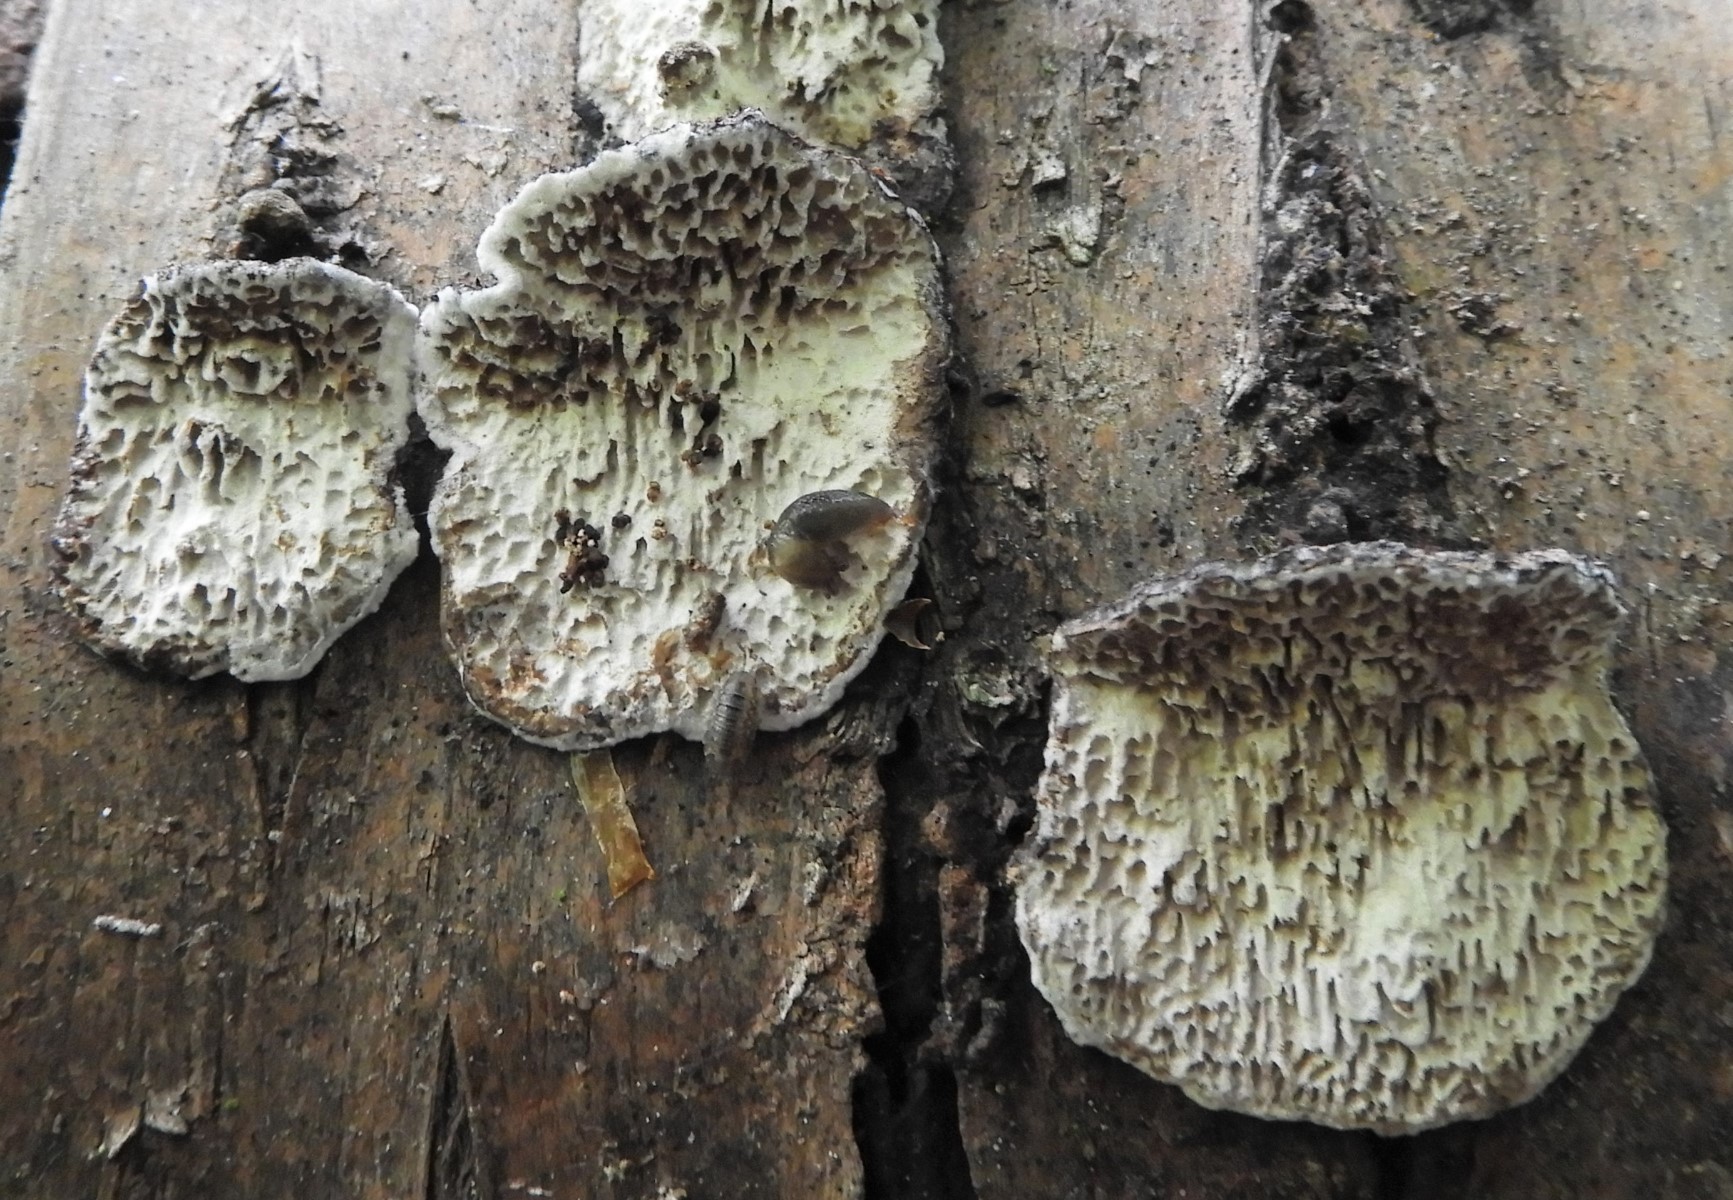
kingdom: Fungi
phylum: Basidiomycota
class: Agaricomycetes
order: Polyporales
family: Polyporaceae
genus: Podofomes
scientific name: Podofomes mollis
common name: blød begporesvamp
